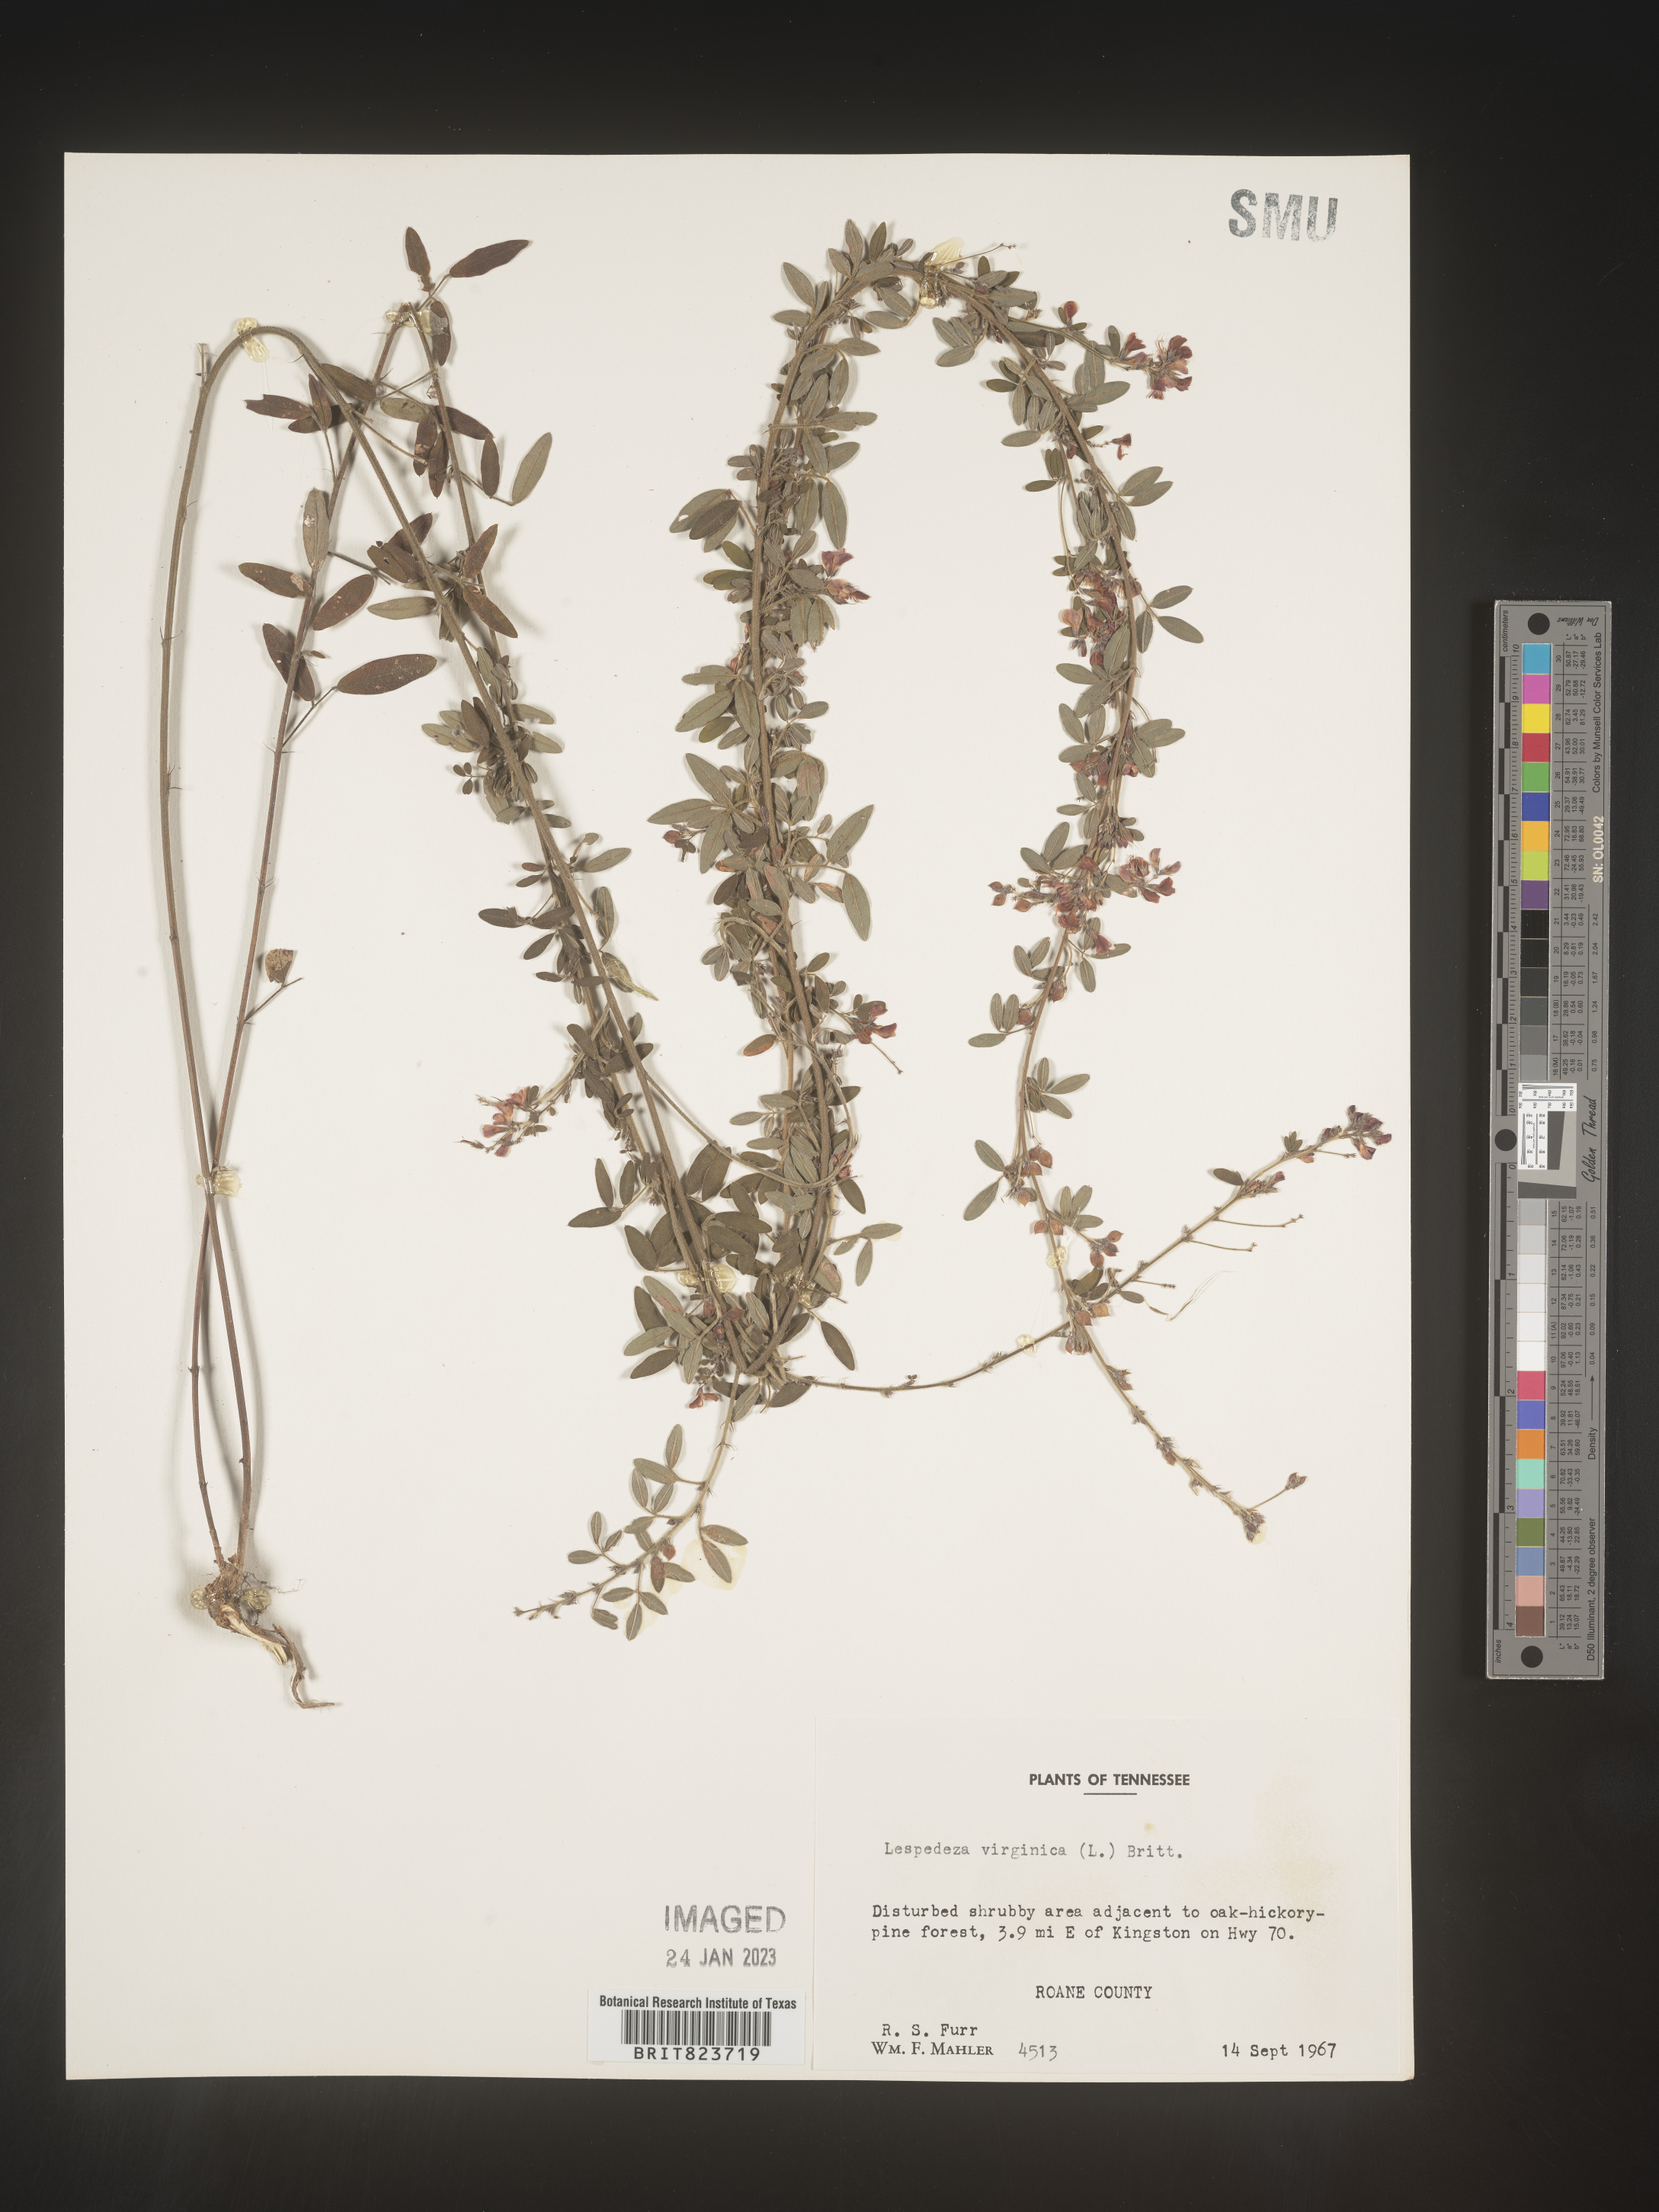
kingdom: Plantae
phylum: Tracheophyta
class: Magnoliopsida
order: Fabales
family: Fabaceae
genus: Lespedeza
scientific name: Lespedeza virginica
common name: Slender bush-clover
